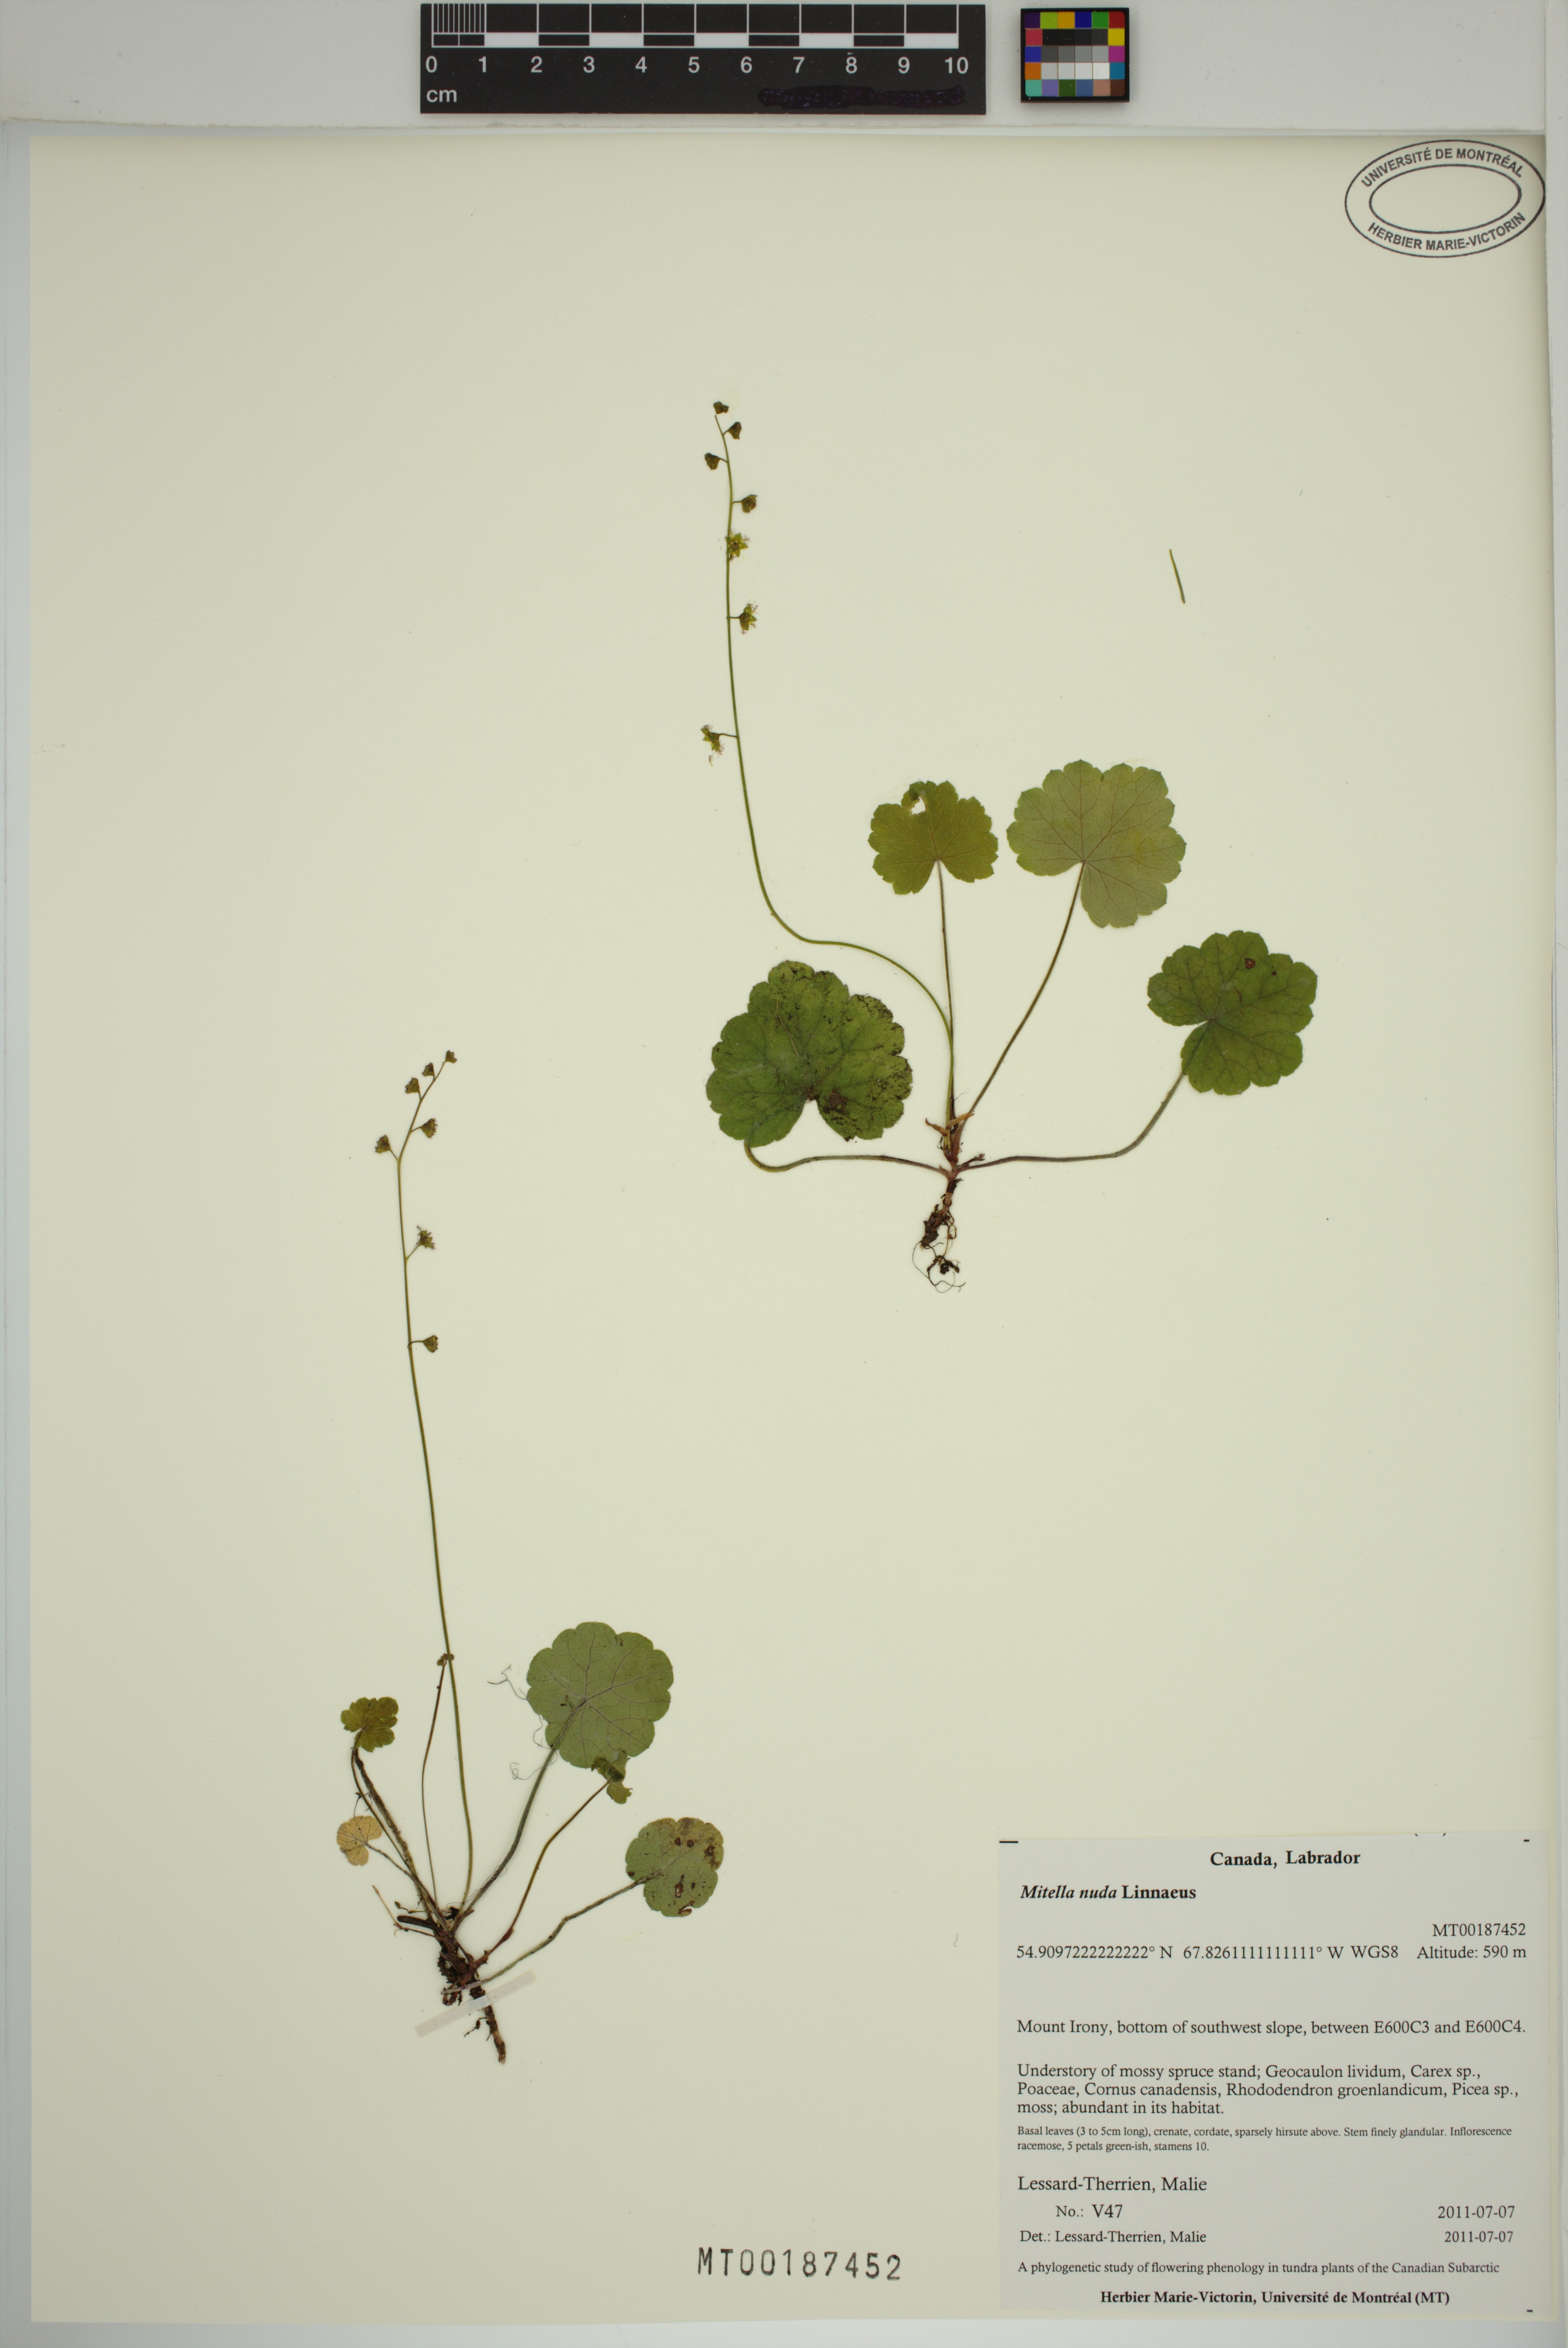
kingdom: Plantae
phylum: Tracheophyta
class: Magnoliopsida
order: Saxifragales
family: Saxifragaceae
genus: Mitella
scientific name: Mitella nuda
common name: Bare-stemmed bishop's-cap
